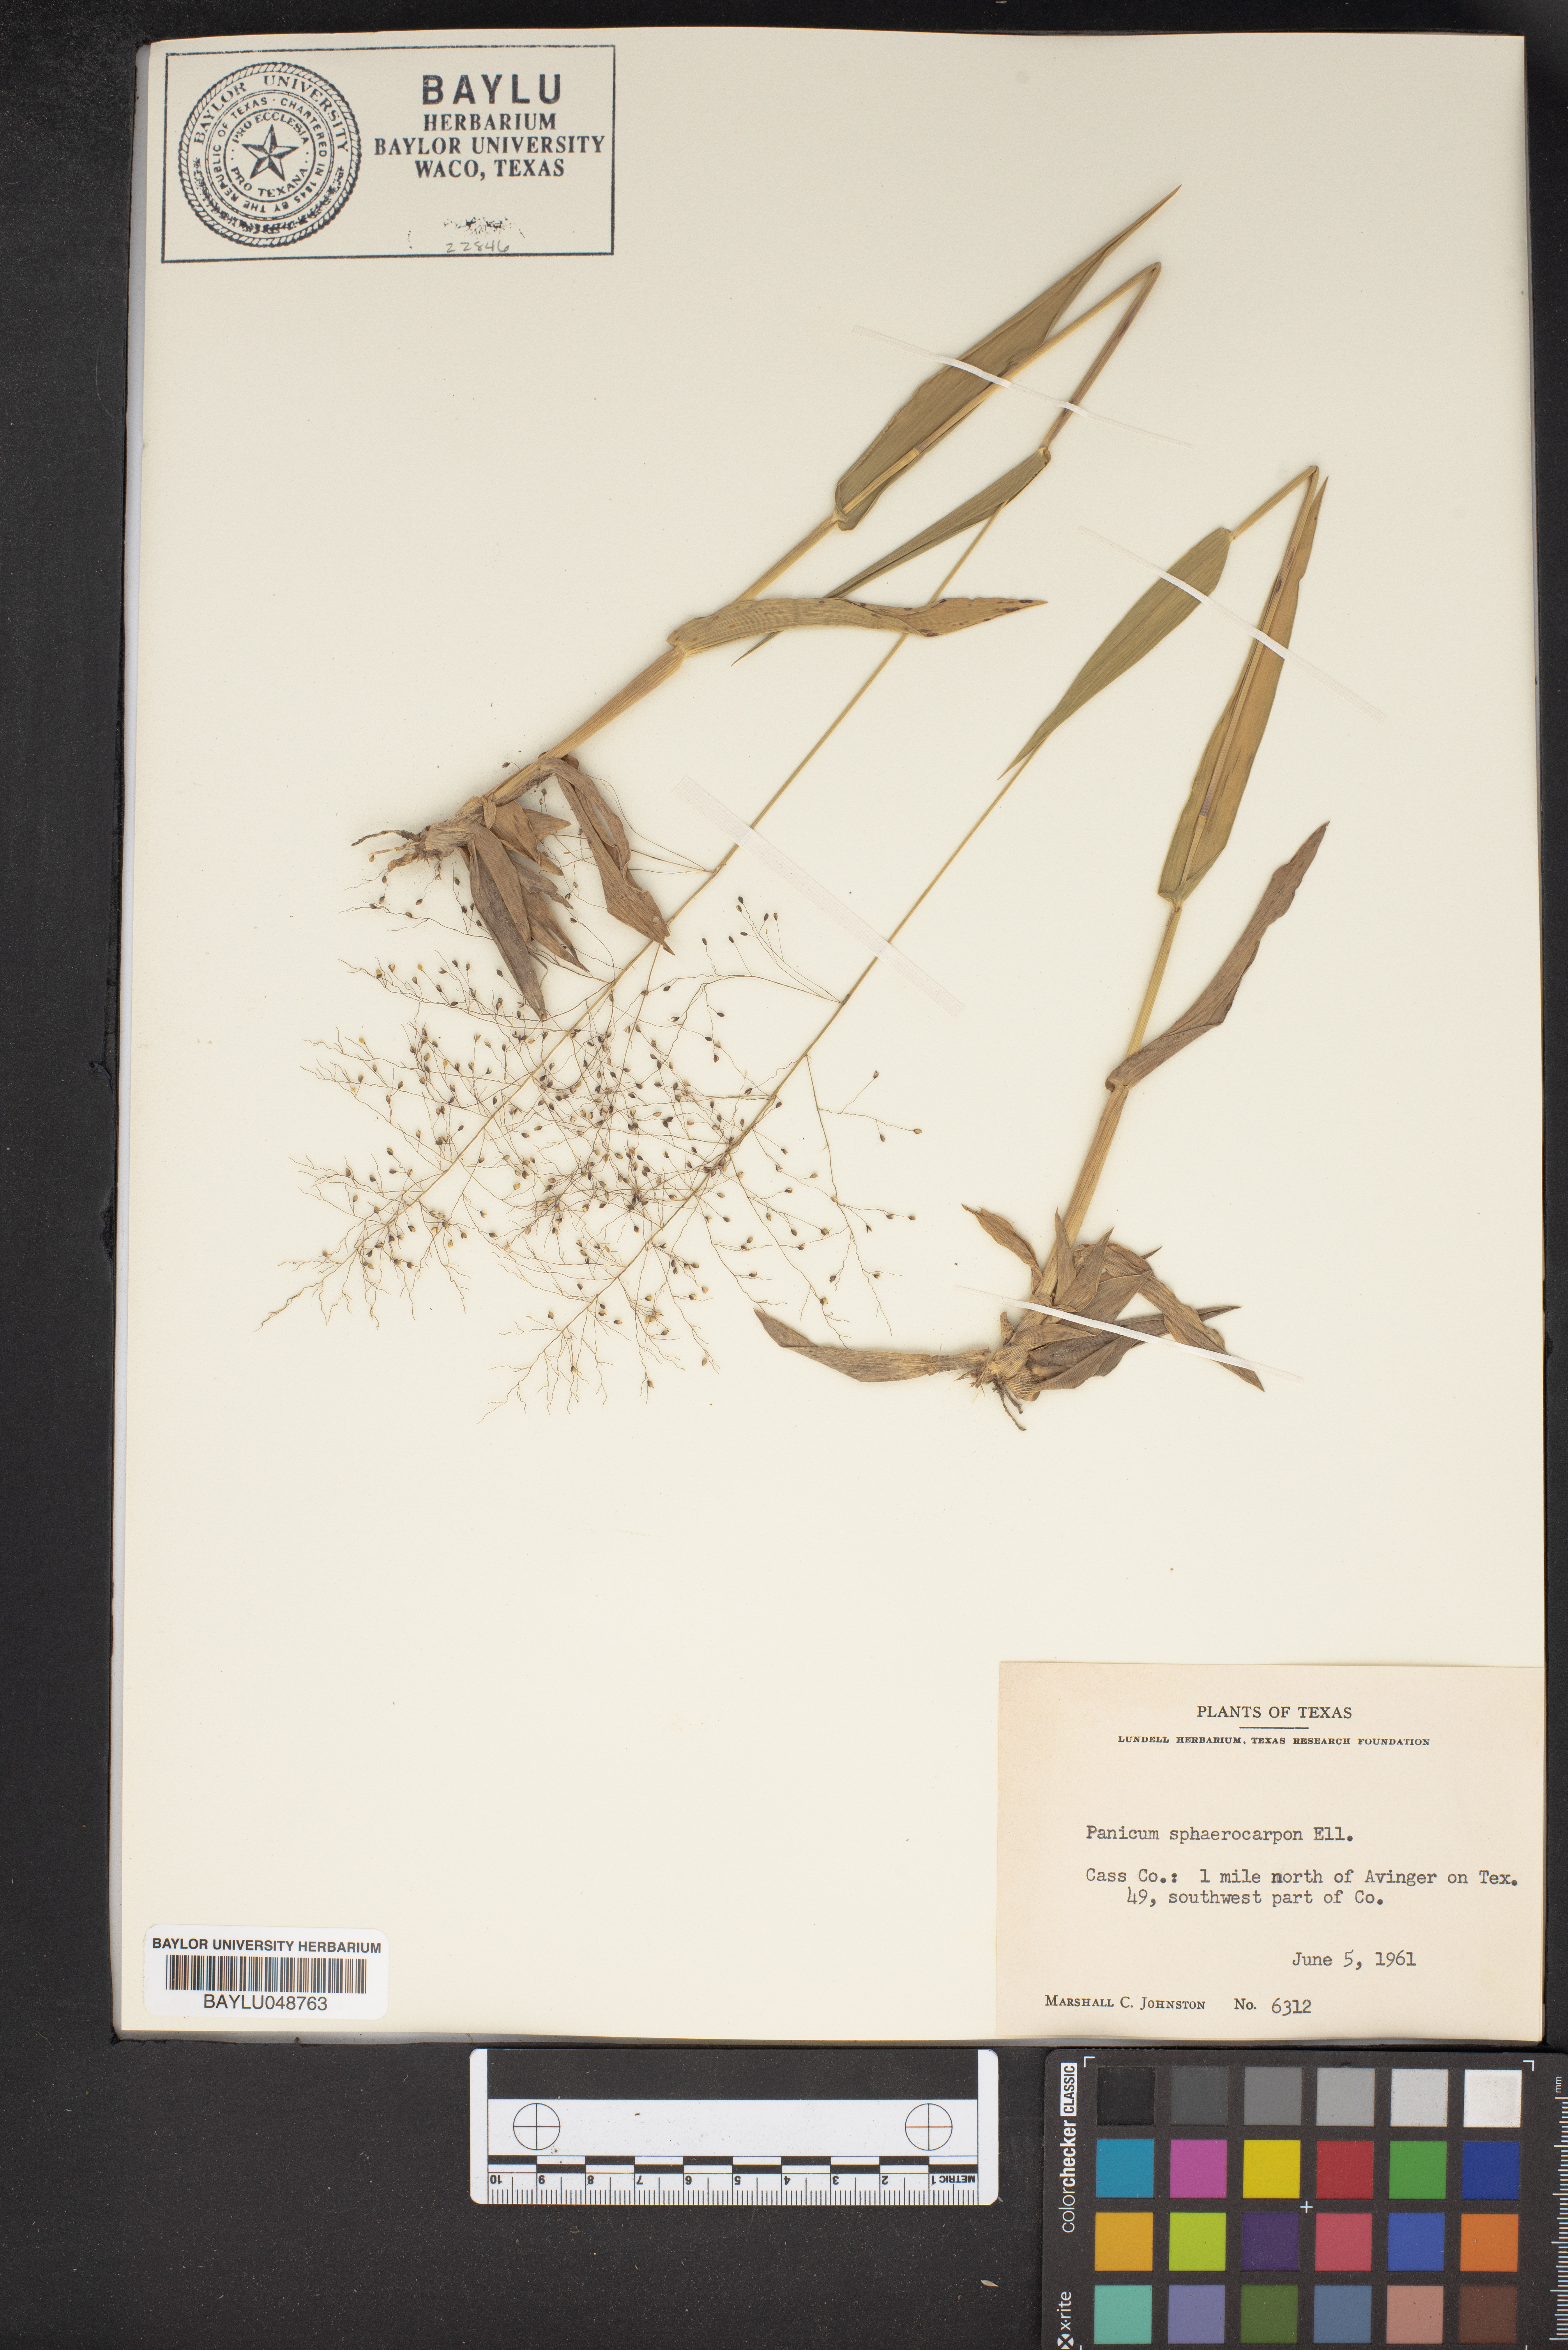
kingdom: Plantae
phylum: Tracheophyta
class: Liliopsida
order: Poales
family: Poaceae
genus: Dichanthelium
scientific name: Dichanthelium sphaerocarpon
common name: Round-fruited panicgrass
